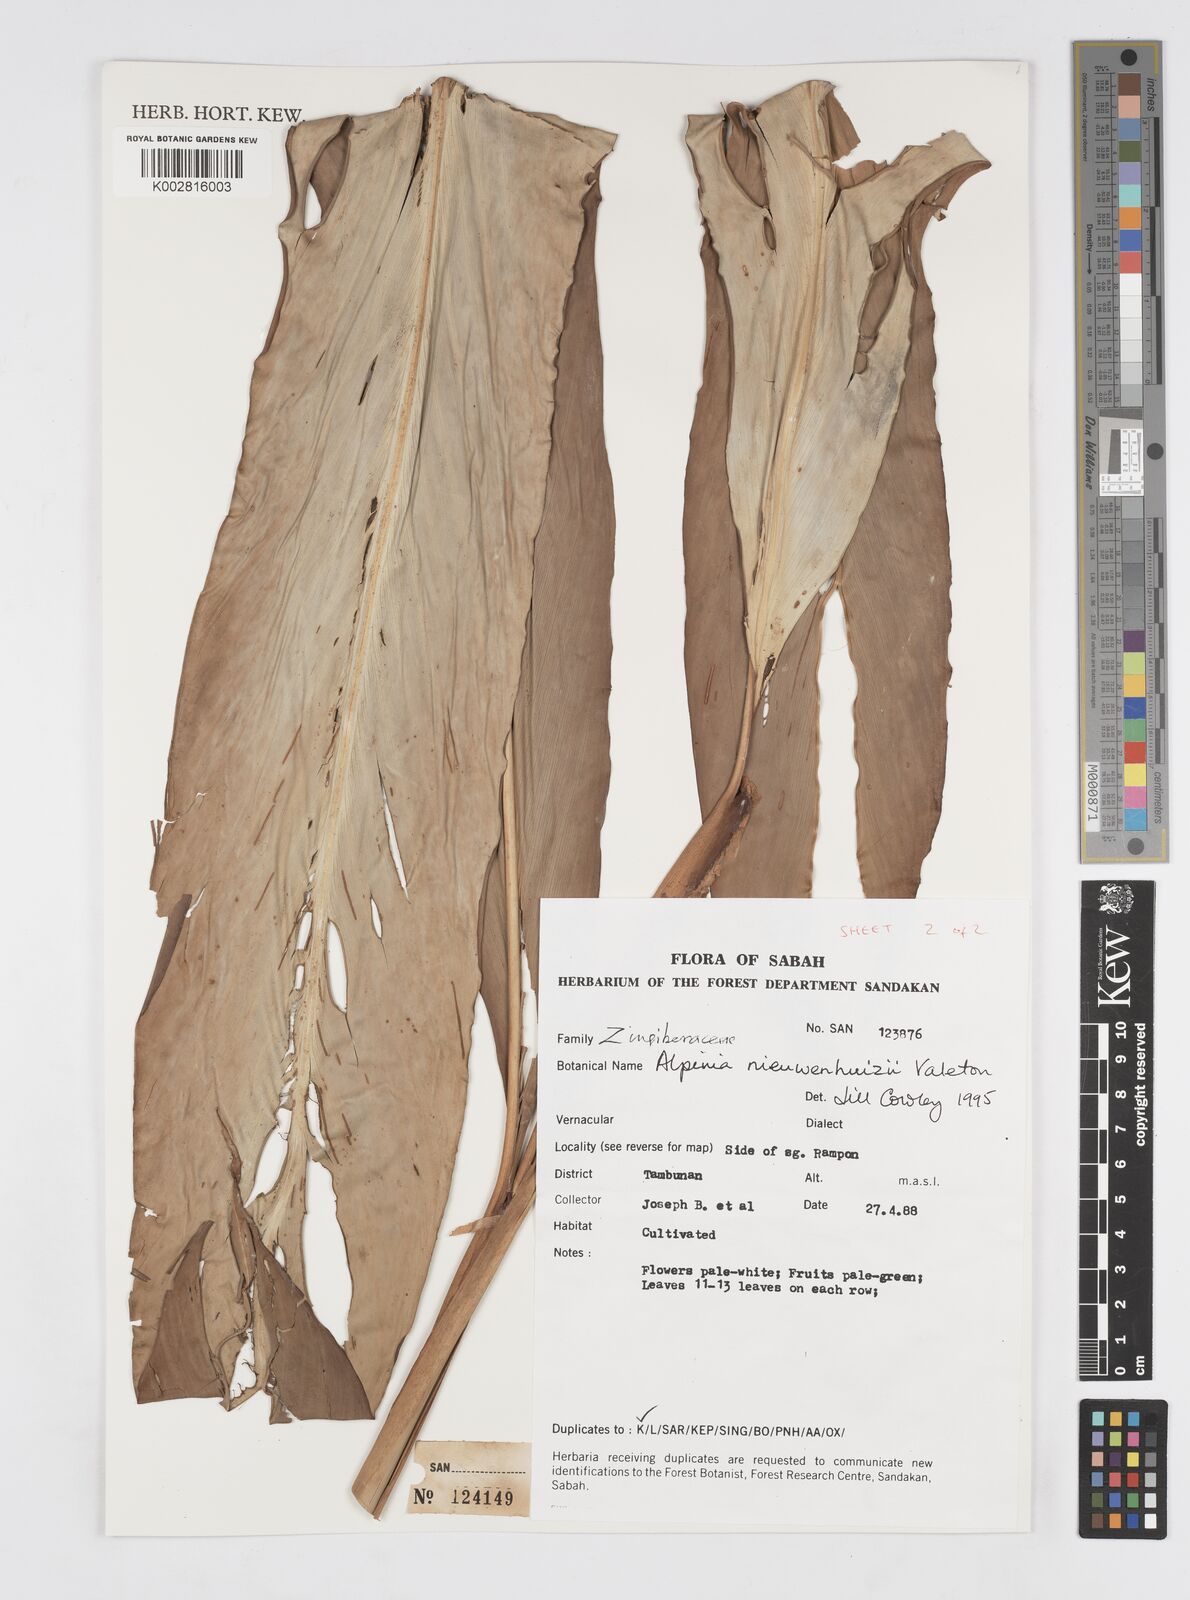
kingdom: Plantae
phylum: Tracheophyta
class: Liliopsida
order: Zingiberales
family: Zingiberaceae
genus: Alpinia
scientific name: Alpinia nieuwenhuizii
